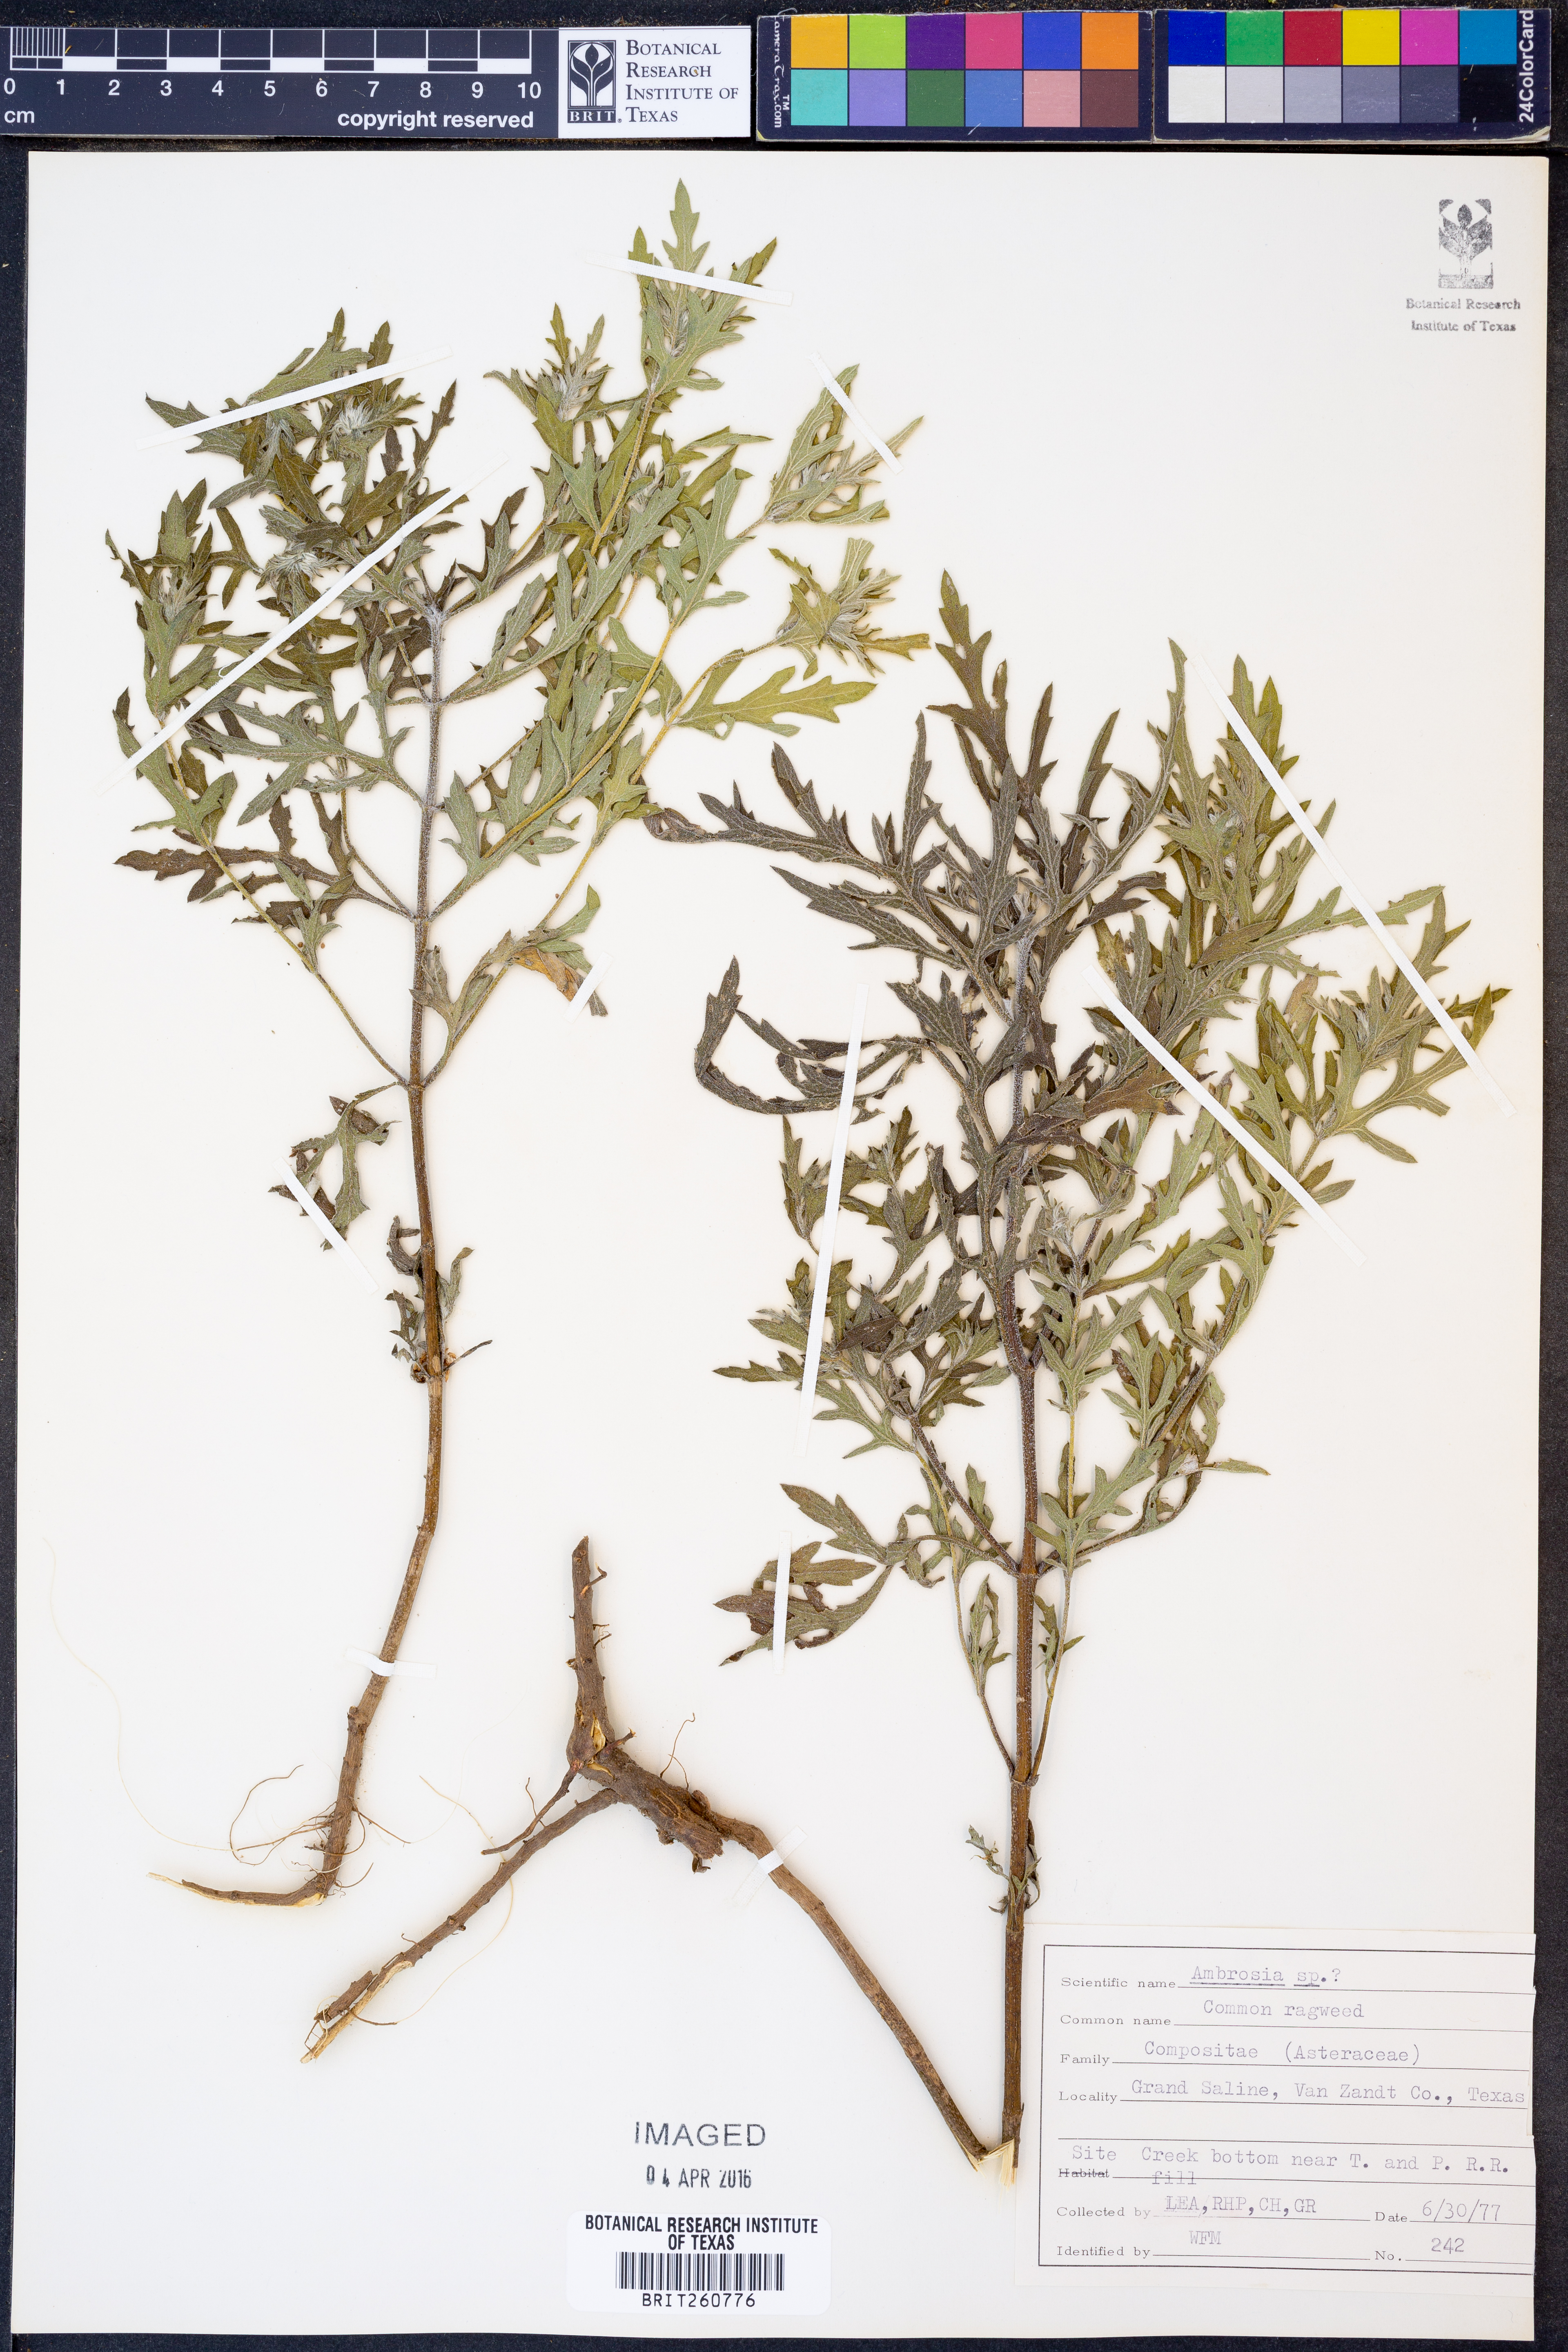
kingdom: Plantae
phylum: Tracheophyta
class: Magnoliopsida
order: Asterales
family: Asteraceae
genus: Ambrosia
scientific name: Ambrosia
